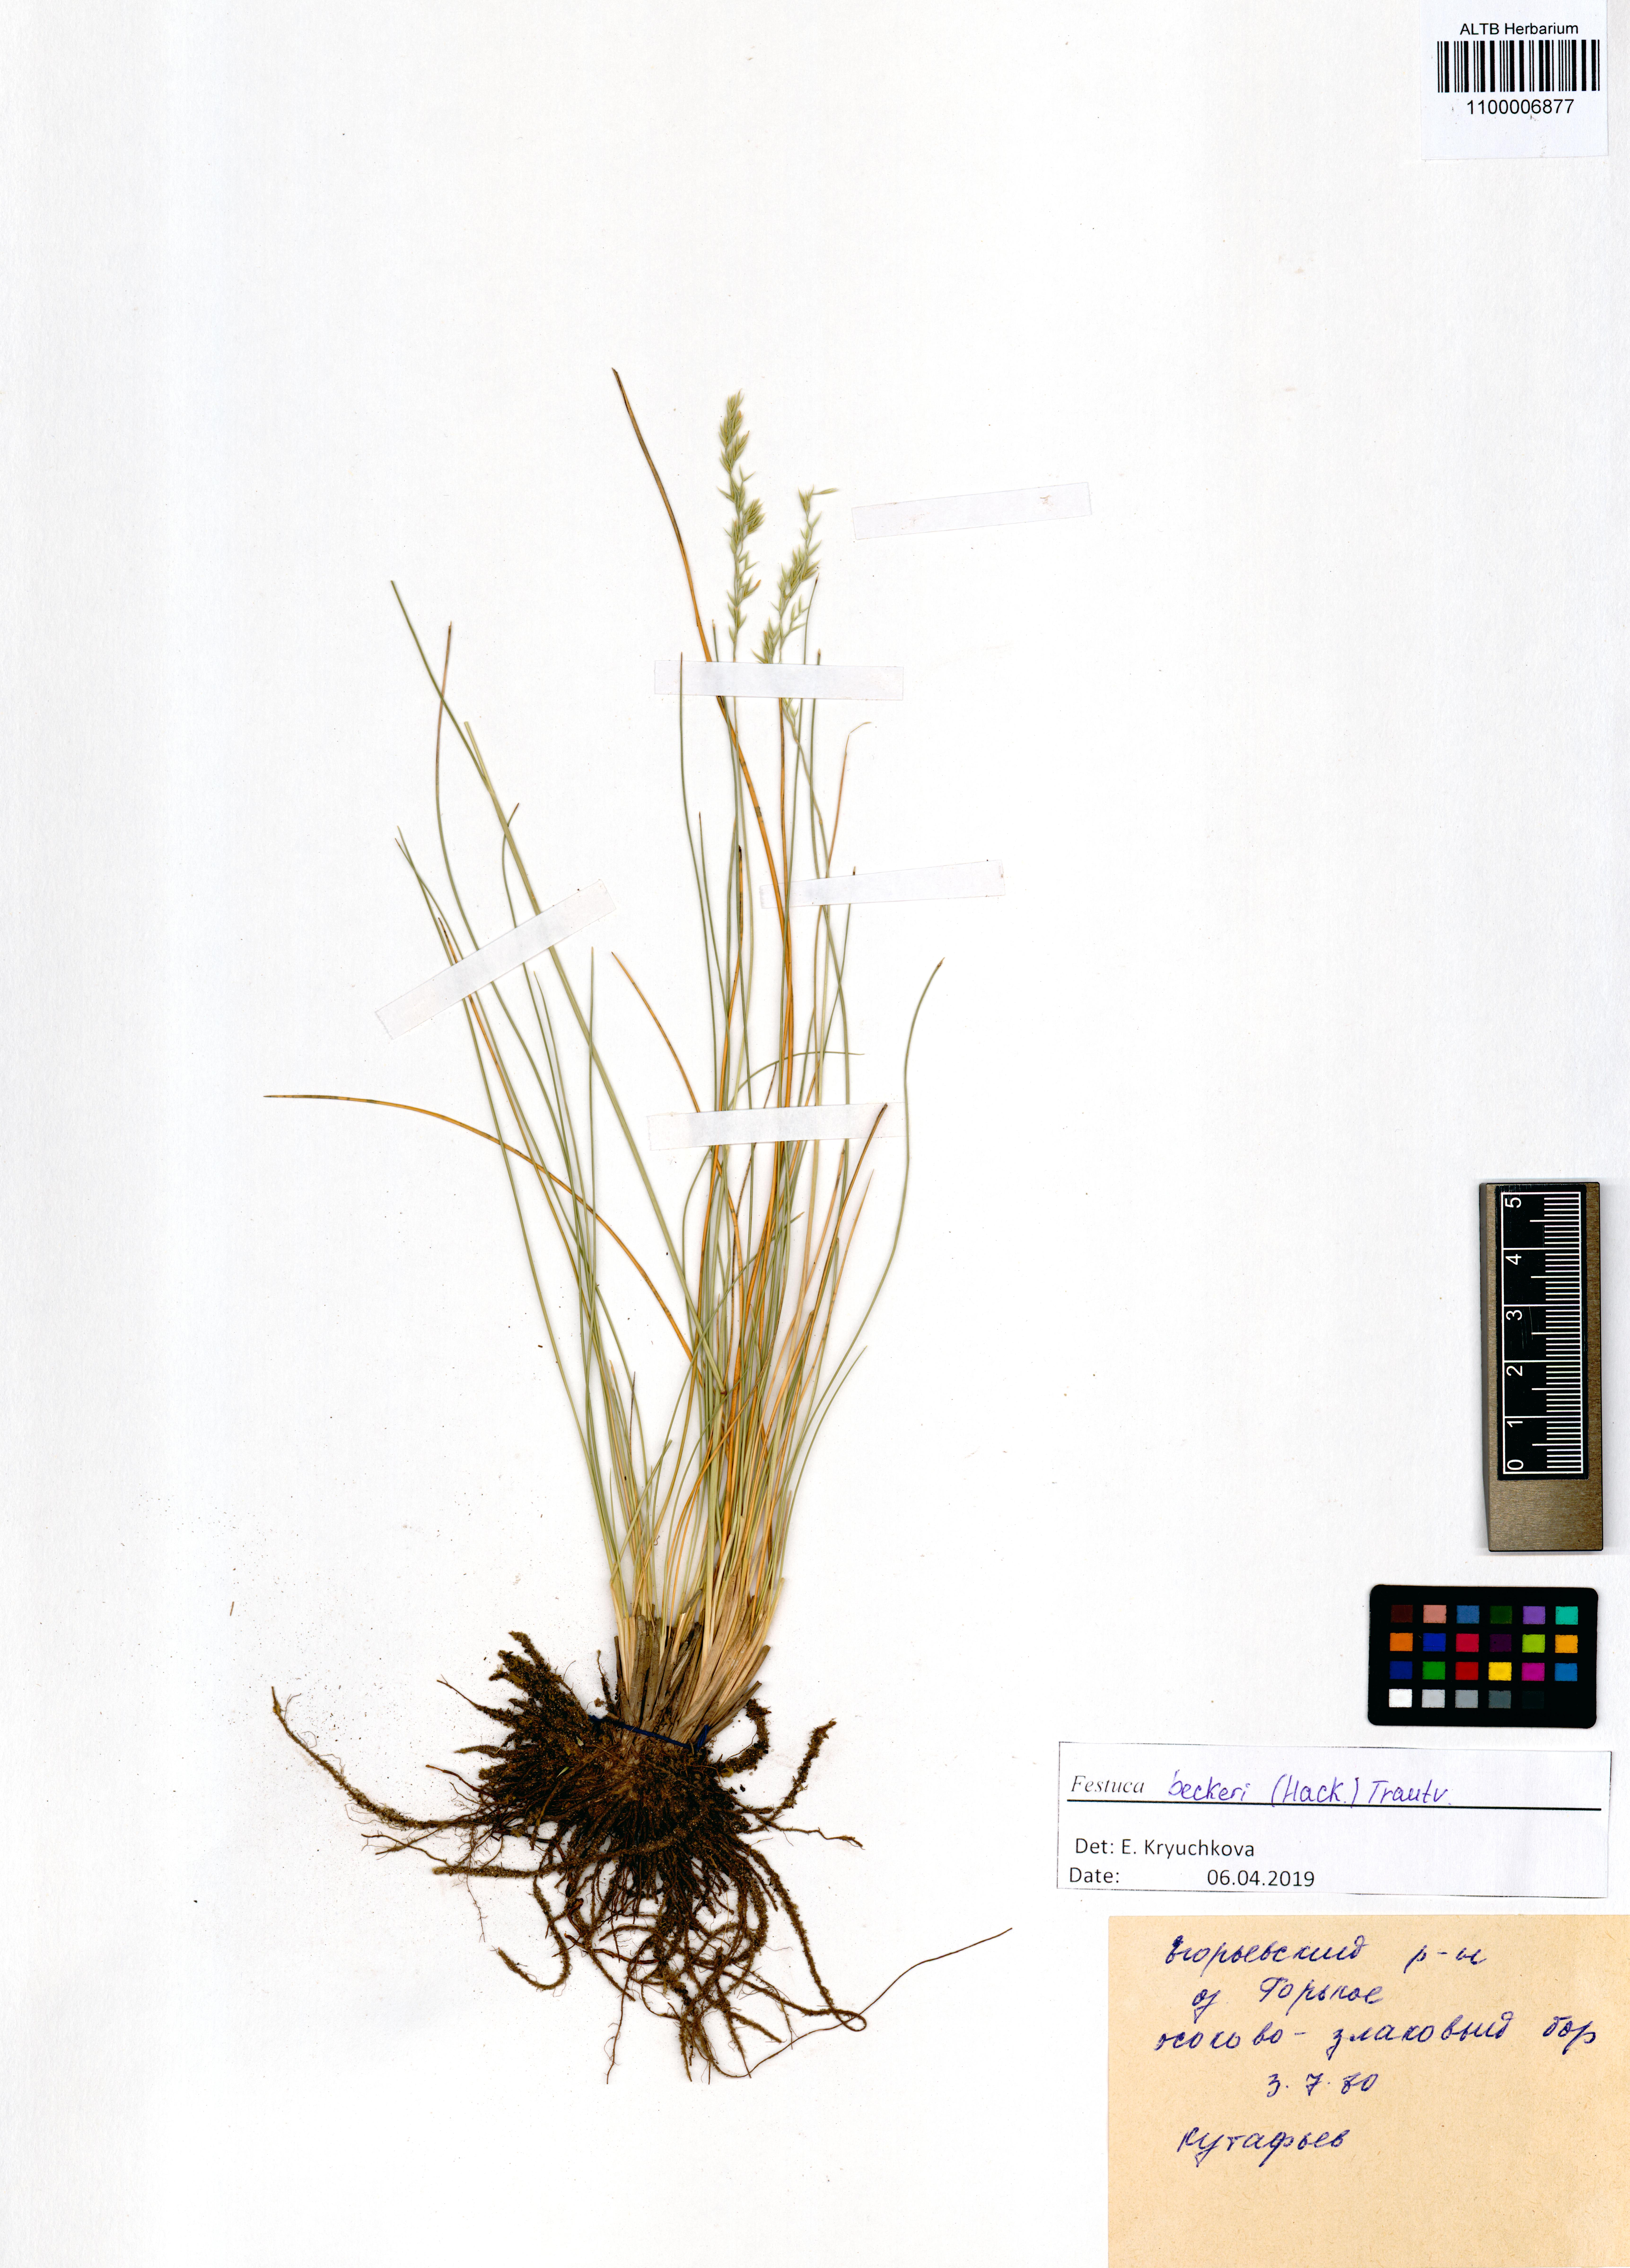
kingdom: Plantae
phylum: Tracheophyta
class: Liliopsida
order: Poales
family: Poaceae
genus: Festuca
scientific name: Festuca beckeri
